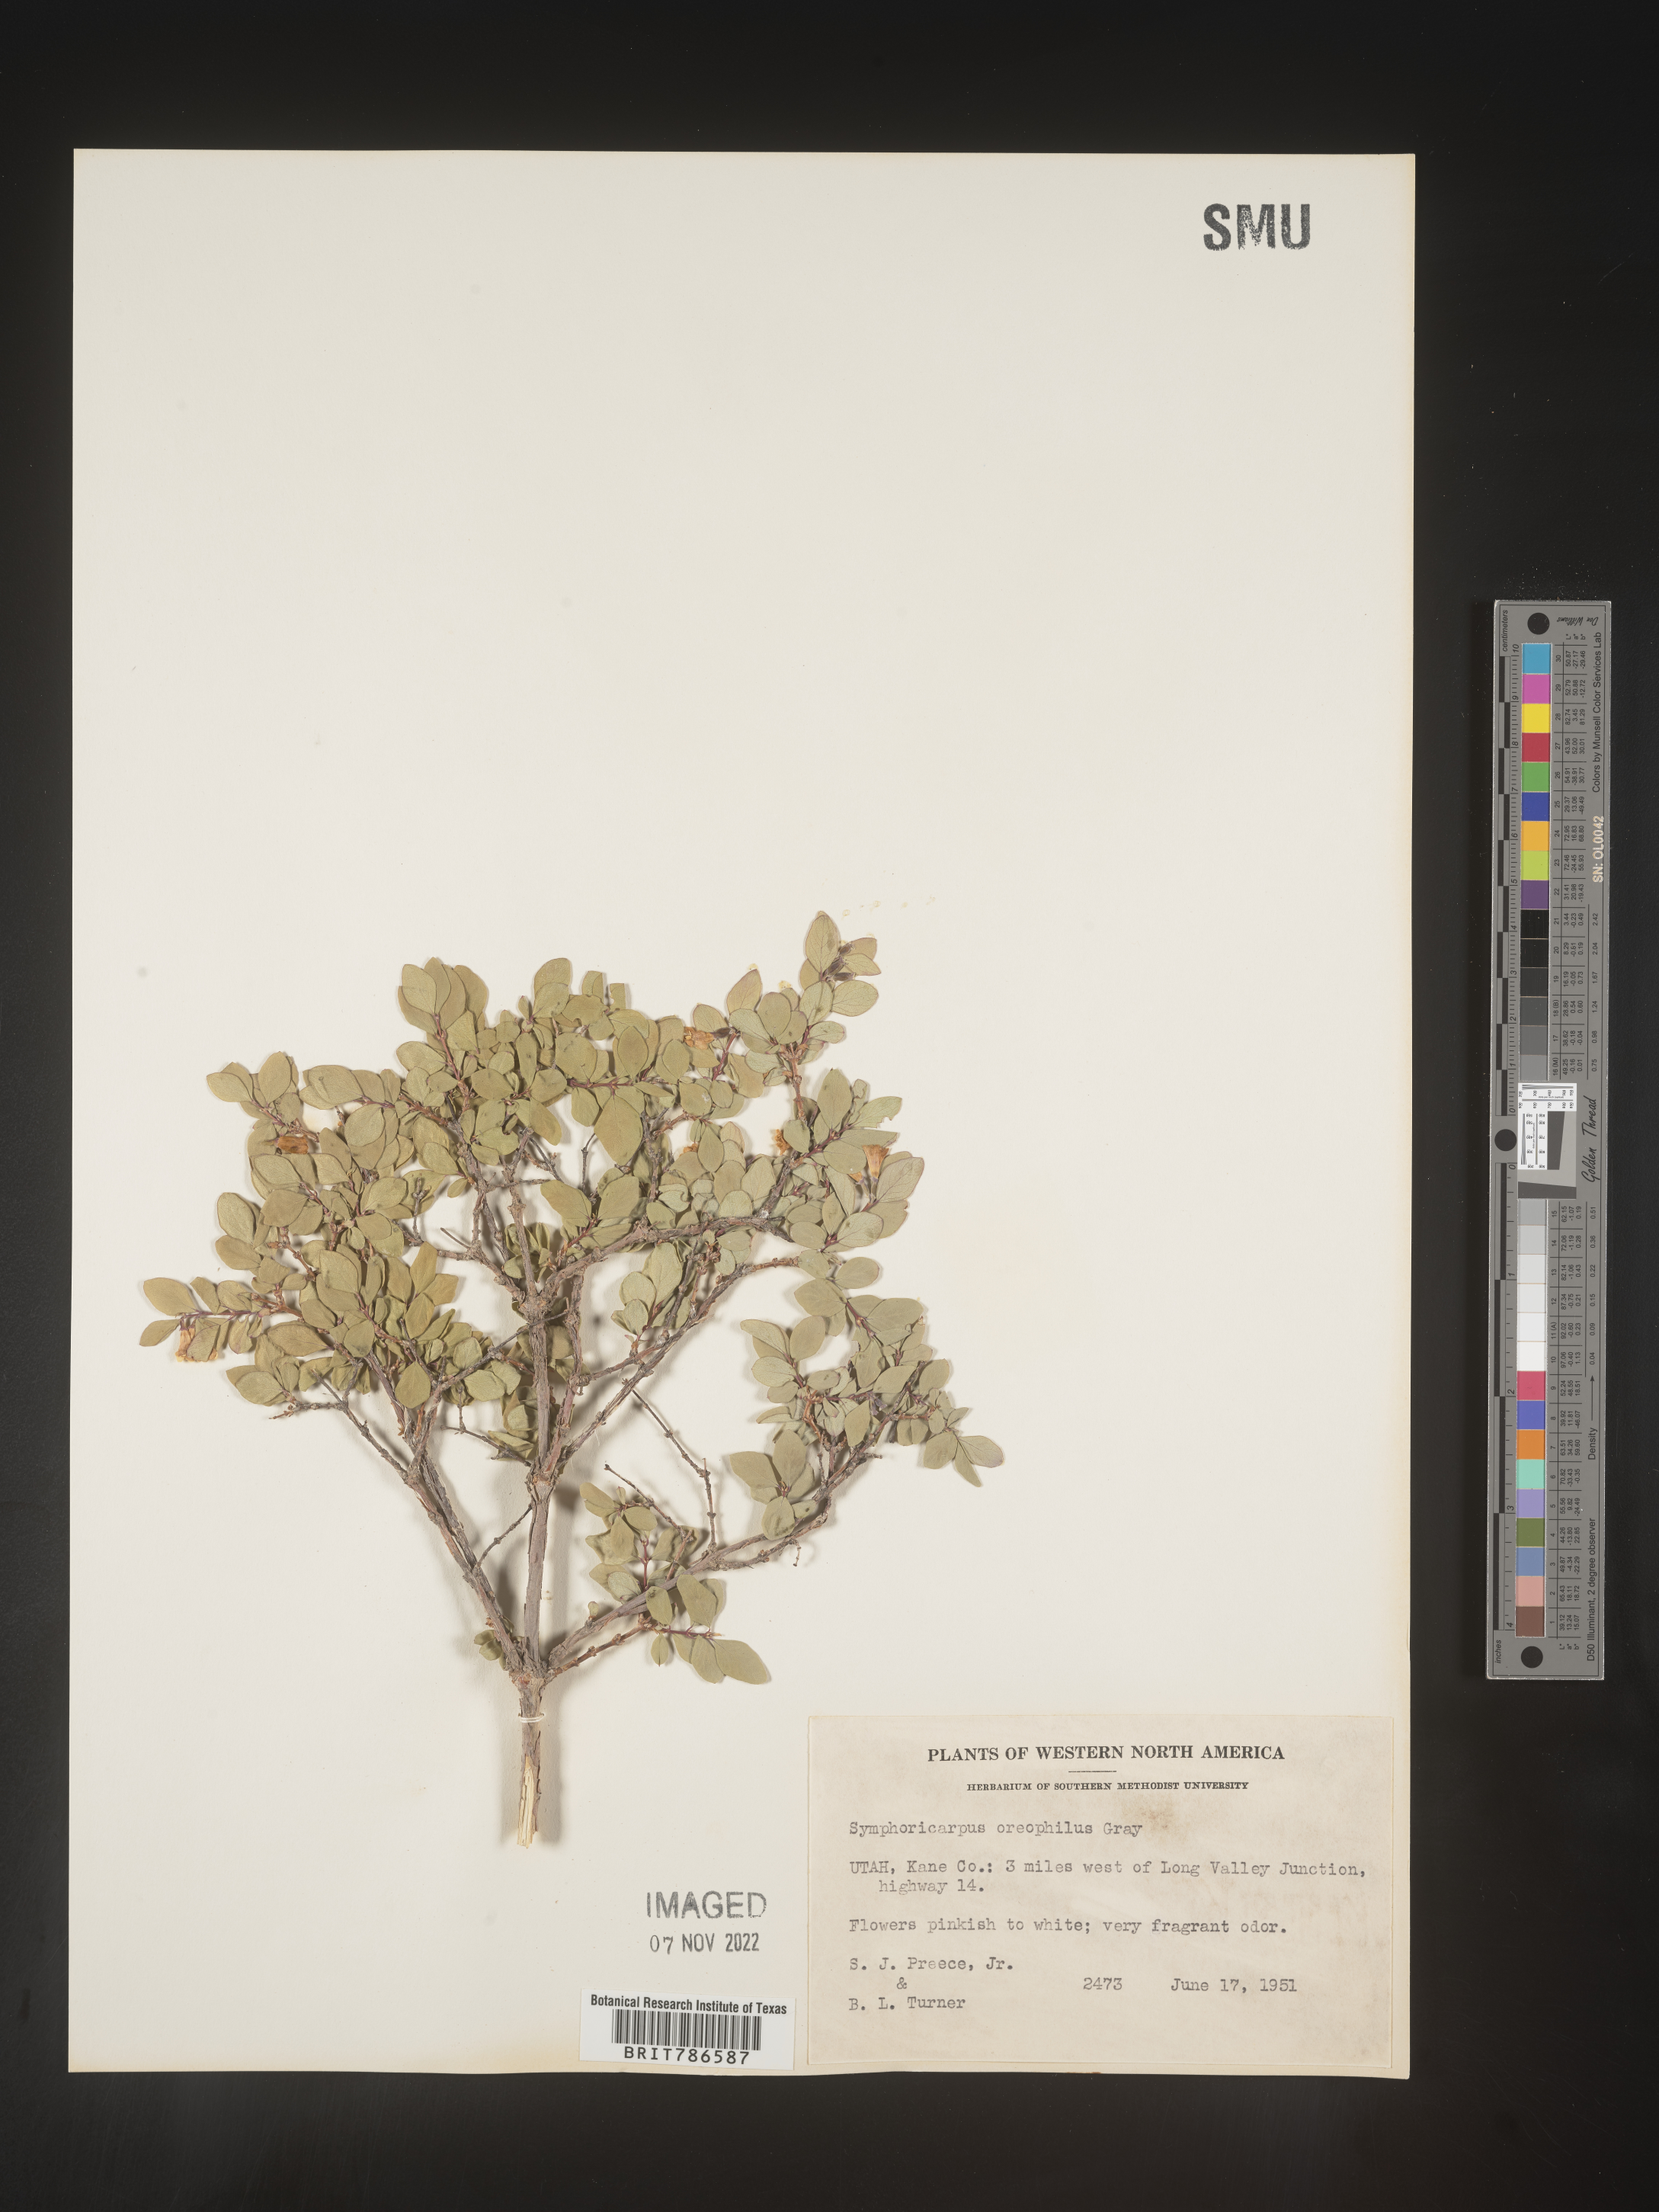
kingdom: Plantae
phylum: Tracheophyta
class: Magnoliopsida
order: Dipsacales
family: Caprifoliaceae
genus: Symphoricarpos
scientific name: Symphoricarpos oreophilus
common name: Mountain snowberry
